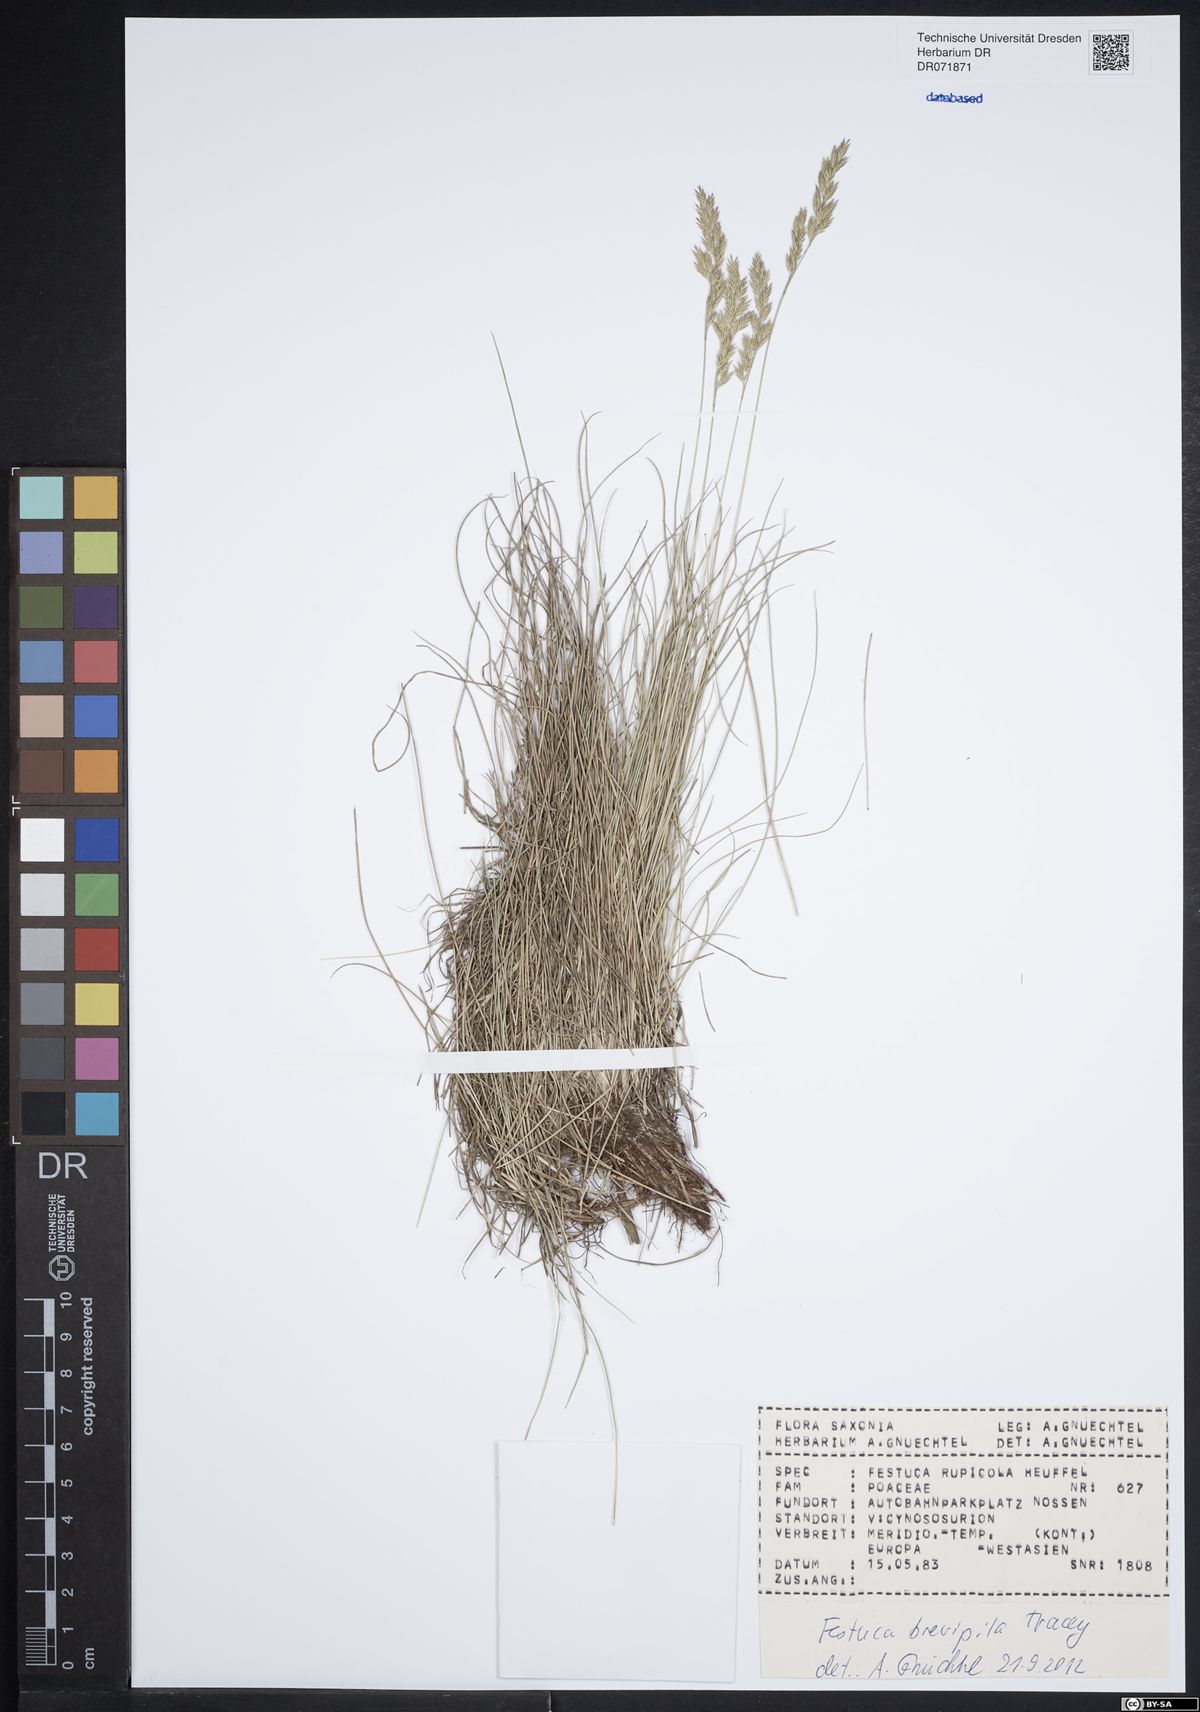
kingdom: Plantae
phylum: Tracheophyta
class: Liliopsida
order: Poales
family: Poaceae
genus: Festuca
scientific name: Festuca trachyphylla
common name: Hard fescue
